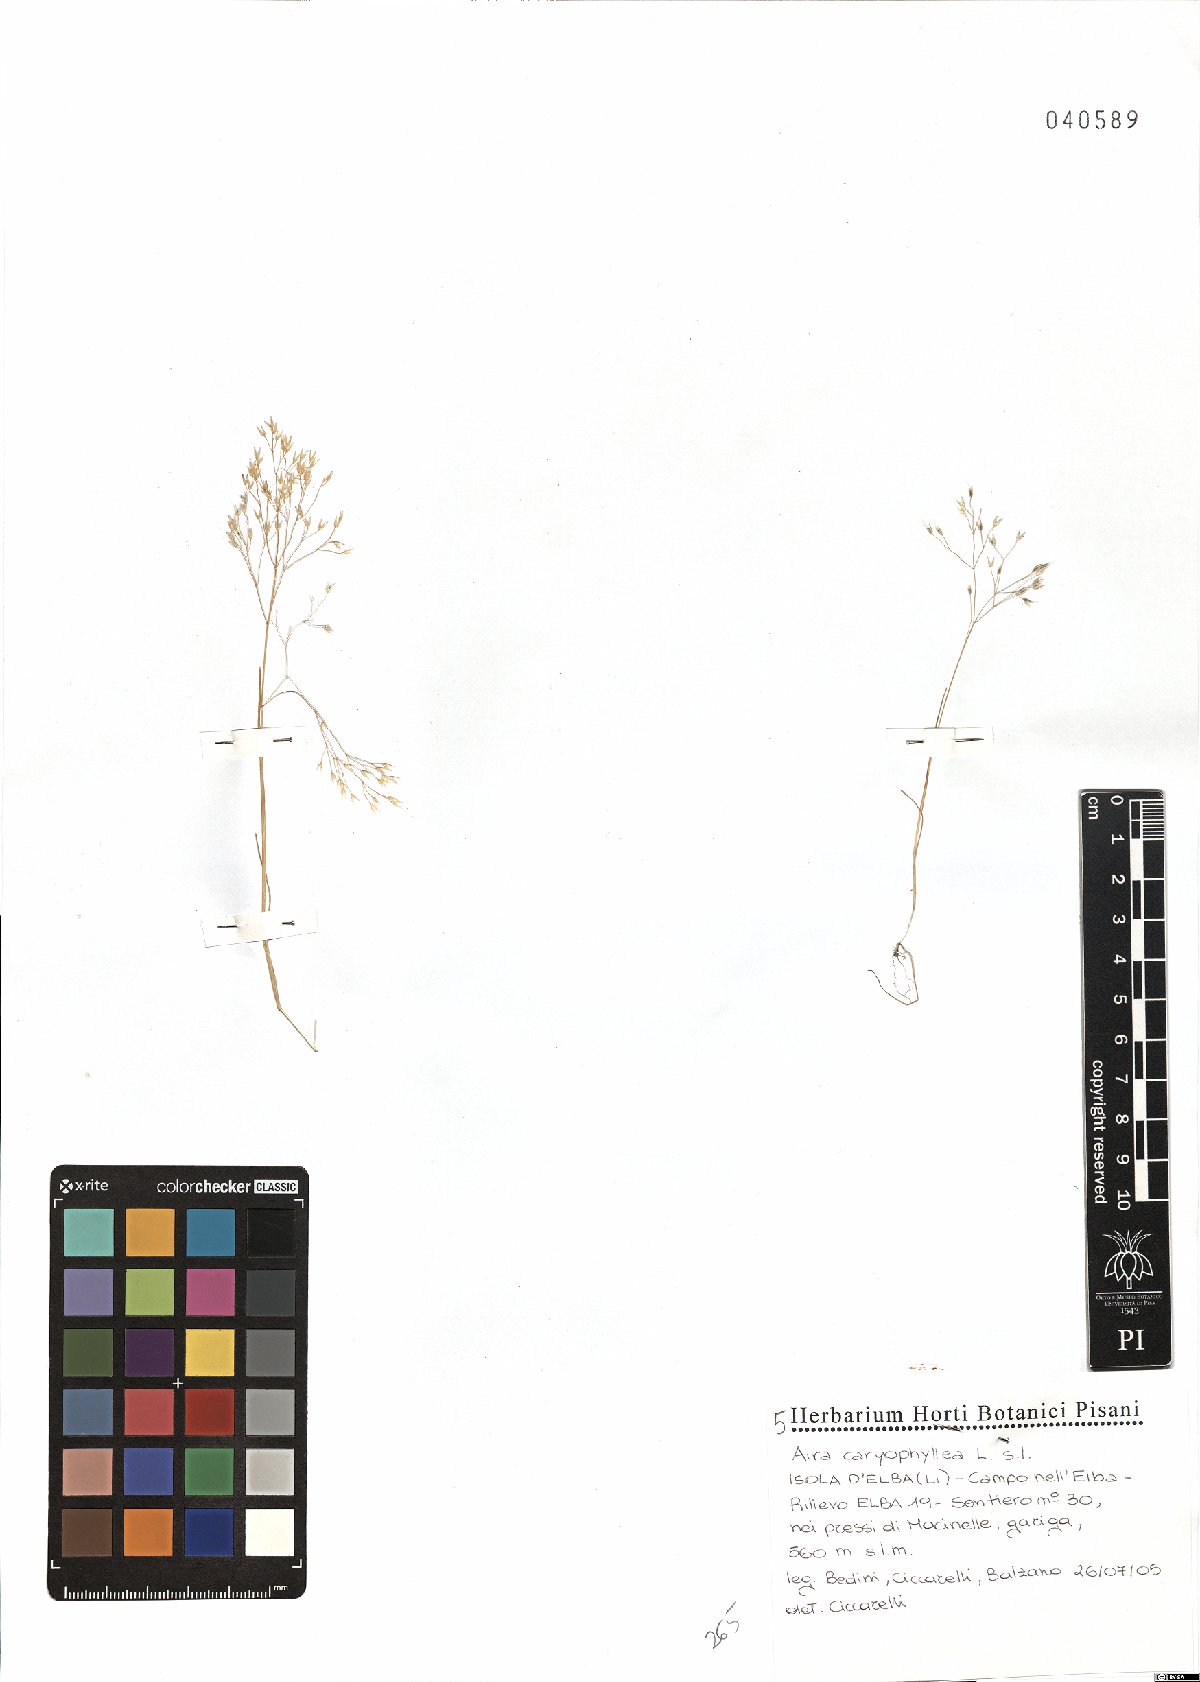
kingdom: Plantae
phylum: Tracheophyta
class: Liliopsida
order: Poales
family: Poaceae
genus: Aira
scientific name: Aira caryophyllea
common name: Silver hairgrass
